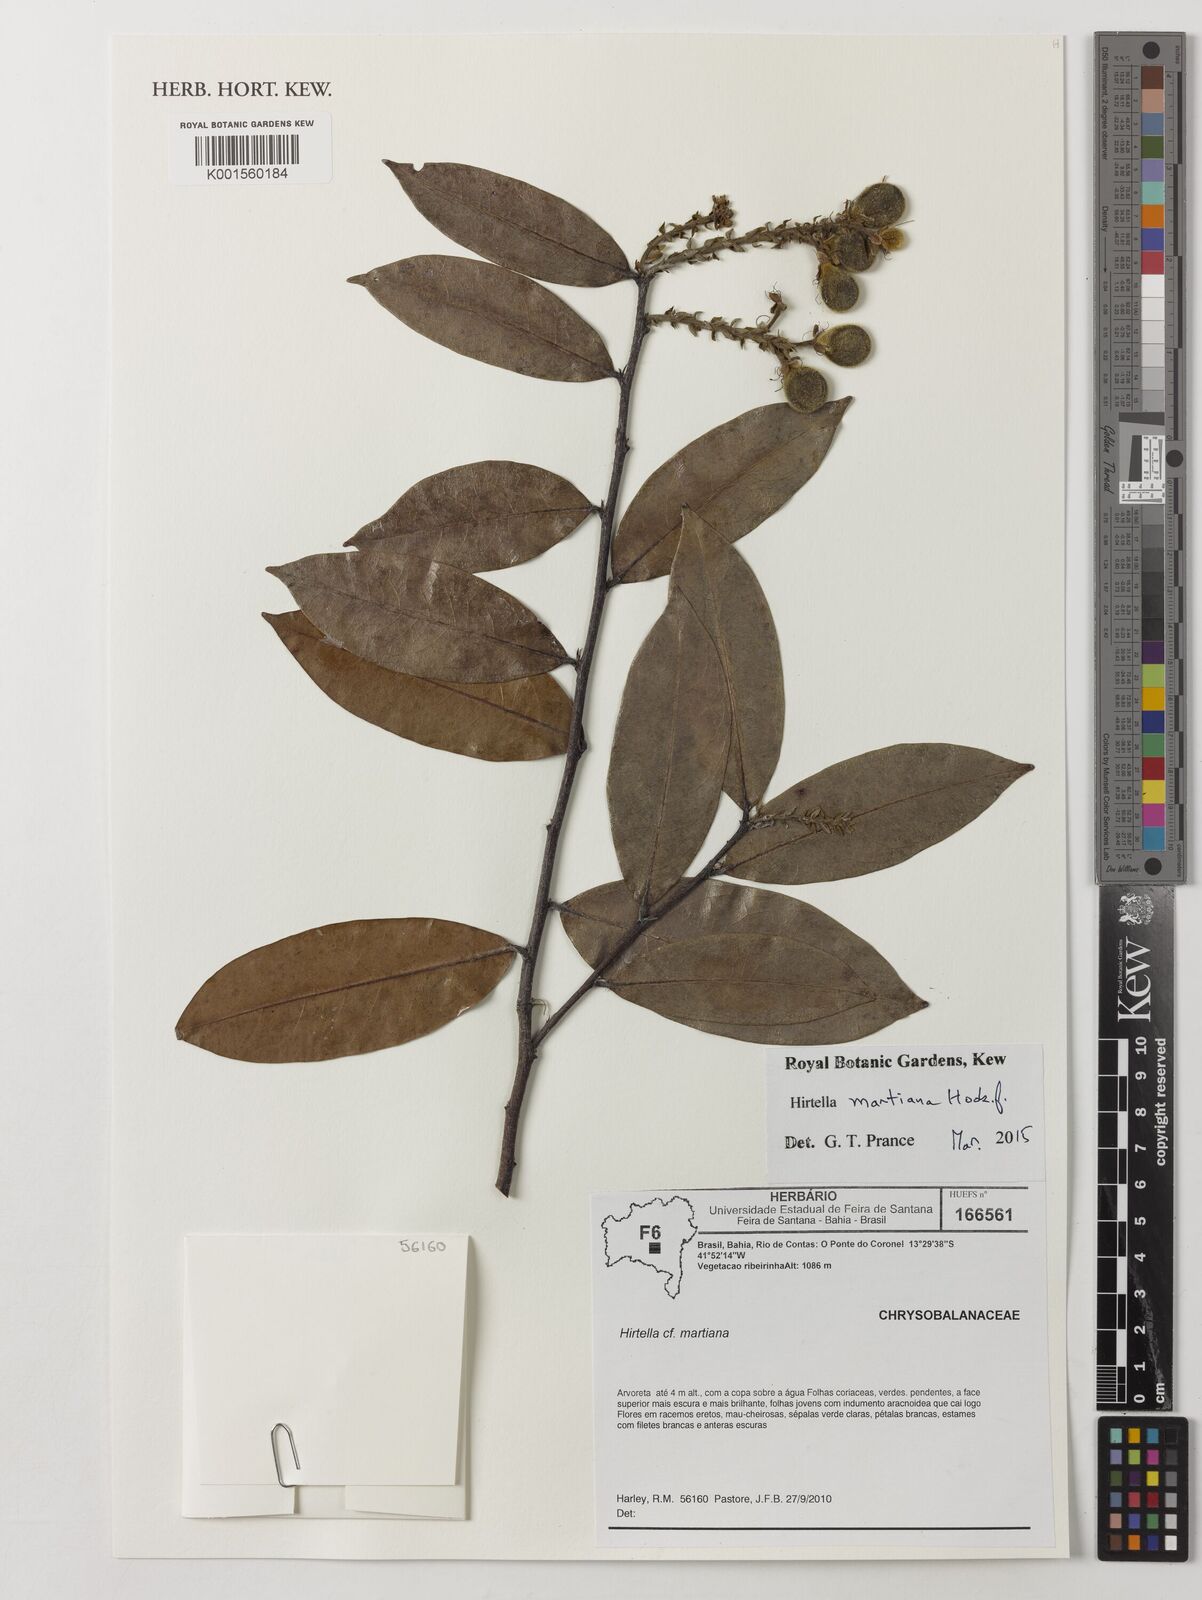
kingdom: Plantae
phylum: Tracheophyta
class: Magnoliopsida
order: Malpighiales
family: Chrysobalanaceae
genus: Hirtella
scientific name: Hirtella martiana
